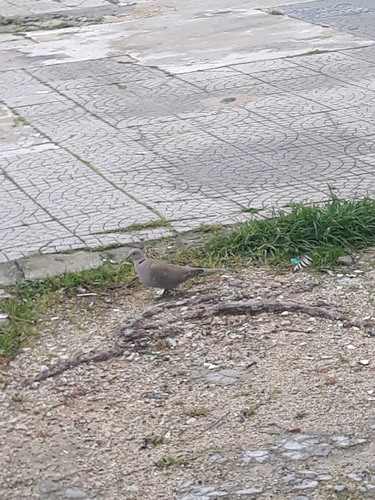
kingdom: Animalia
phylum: Chordata
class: Aves
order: Columbiformes
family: Columbidae
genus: Streptopelia
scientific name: Streptopelia decaocto
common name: Eurasian collared dove
